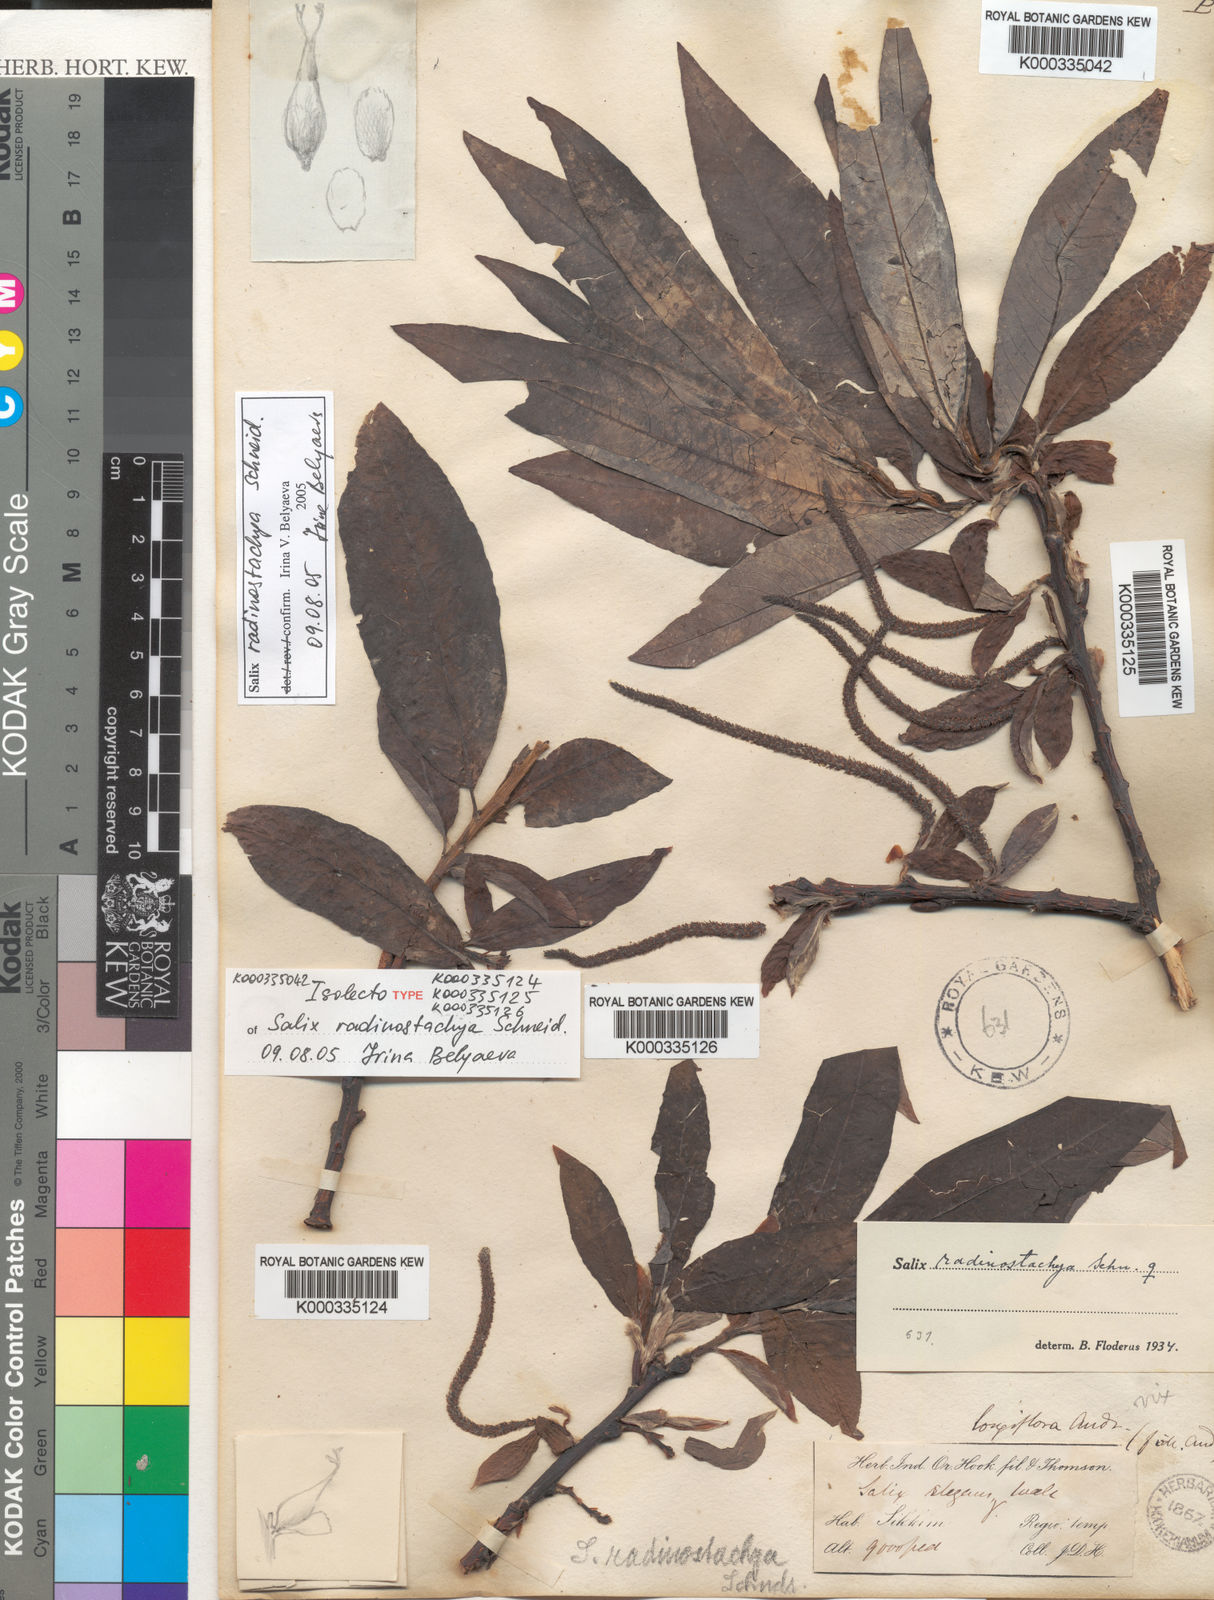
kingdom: Plantae
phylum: Tracheophyta
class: Magnoliopsida
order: Malpighiales
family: Salicaceae
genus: Salix
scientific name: Salix radinostachya
